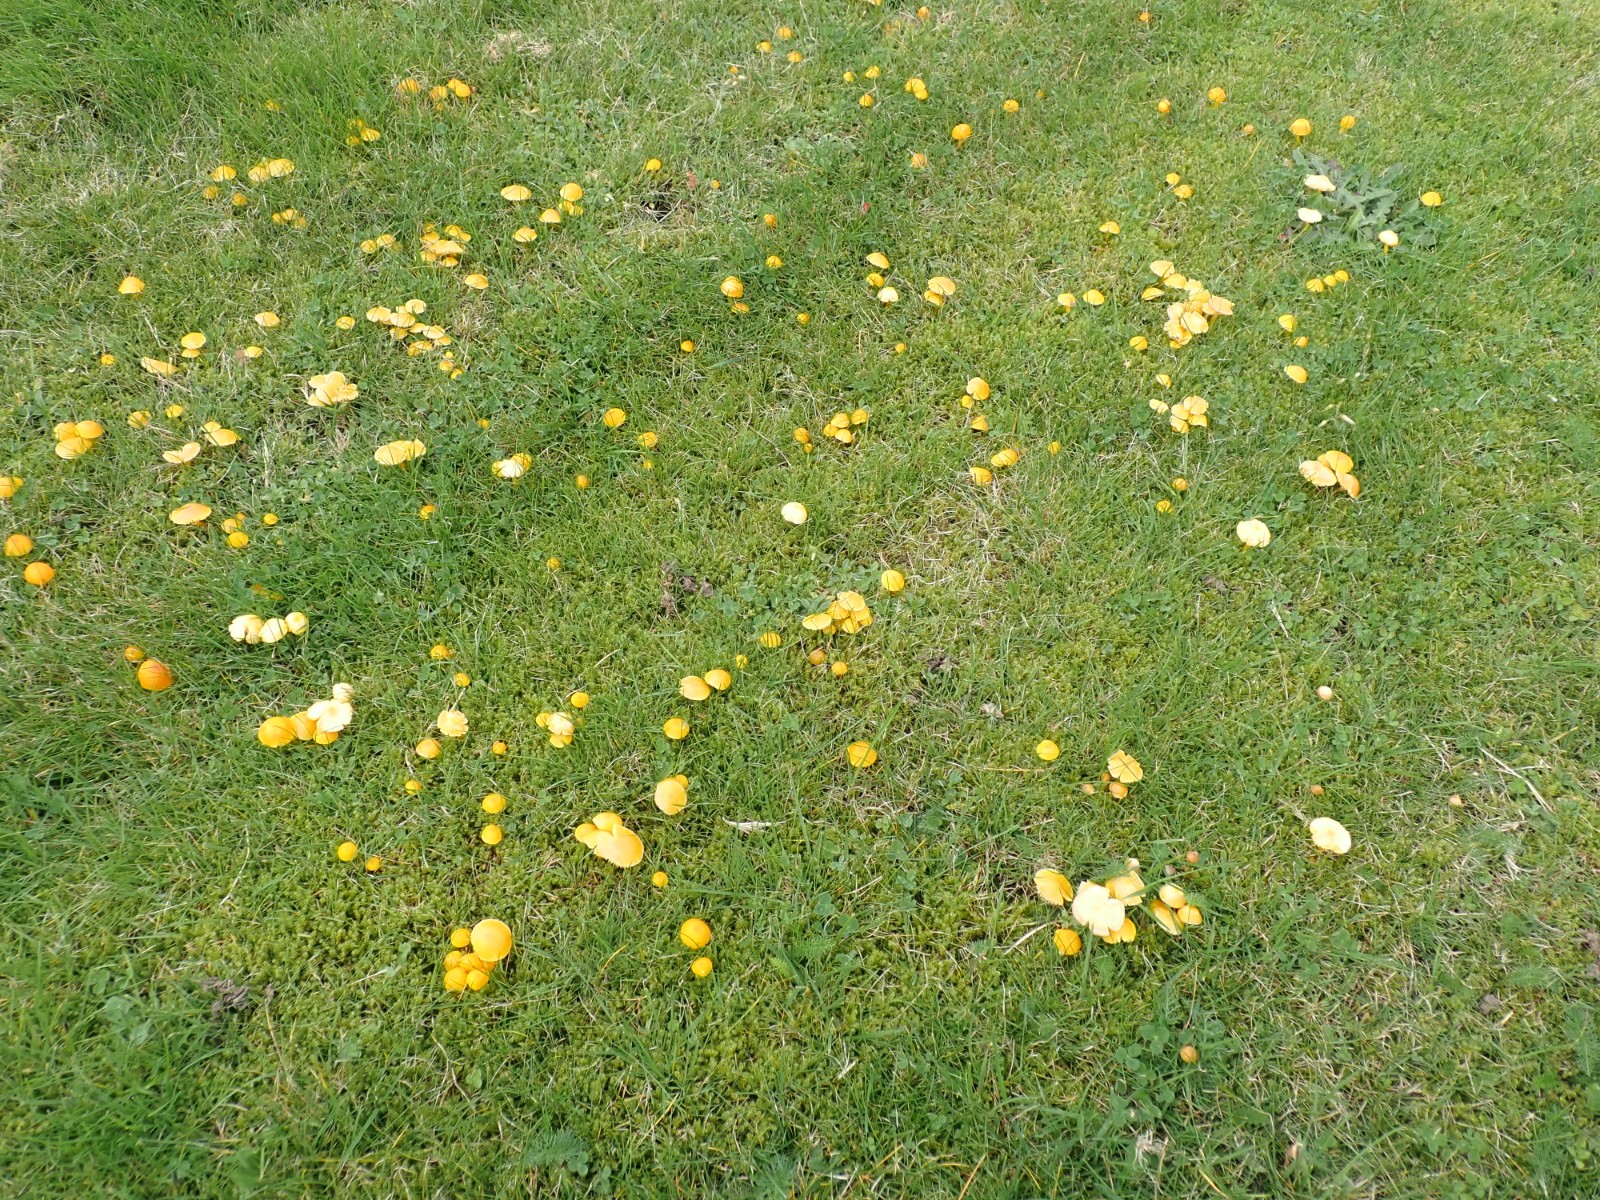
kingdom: Fungi
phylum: Basidiomycota
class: Agaricomycetes
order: Agaricales
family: Hygrophoraceae
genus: Hygrocybe
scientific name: Hygrocybe ceracea
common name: voksgul vokshat
